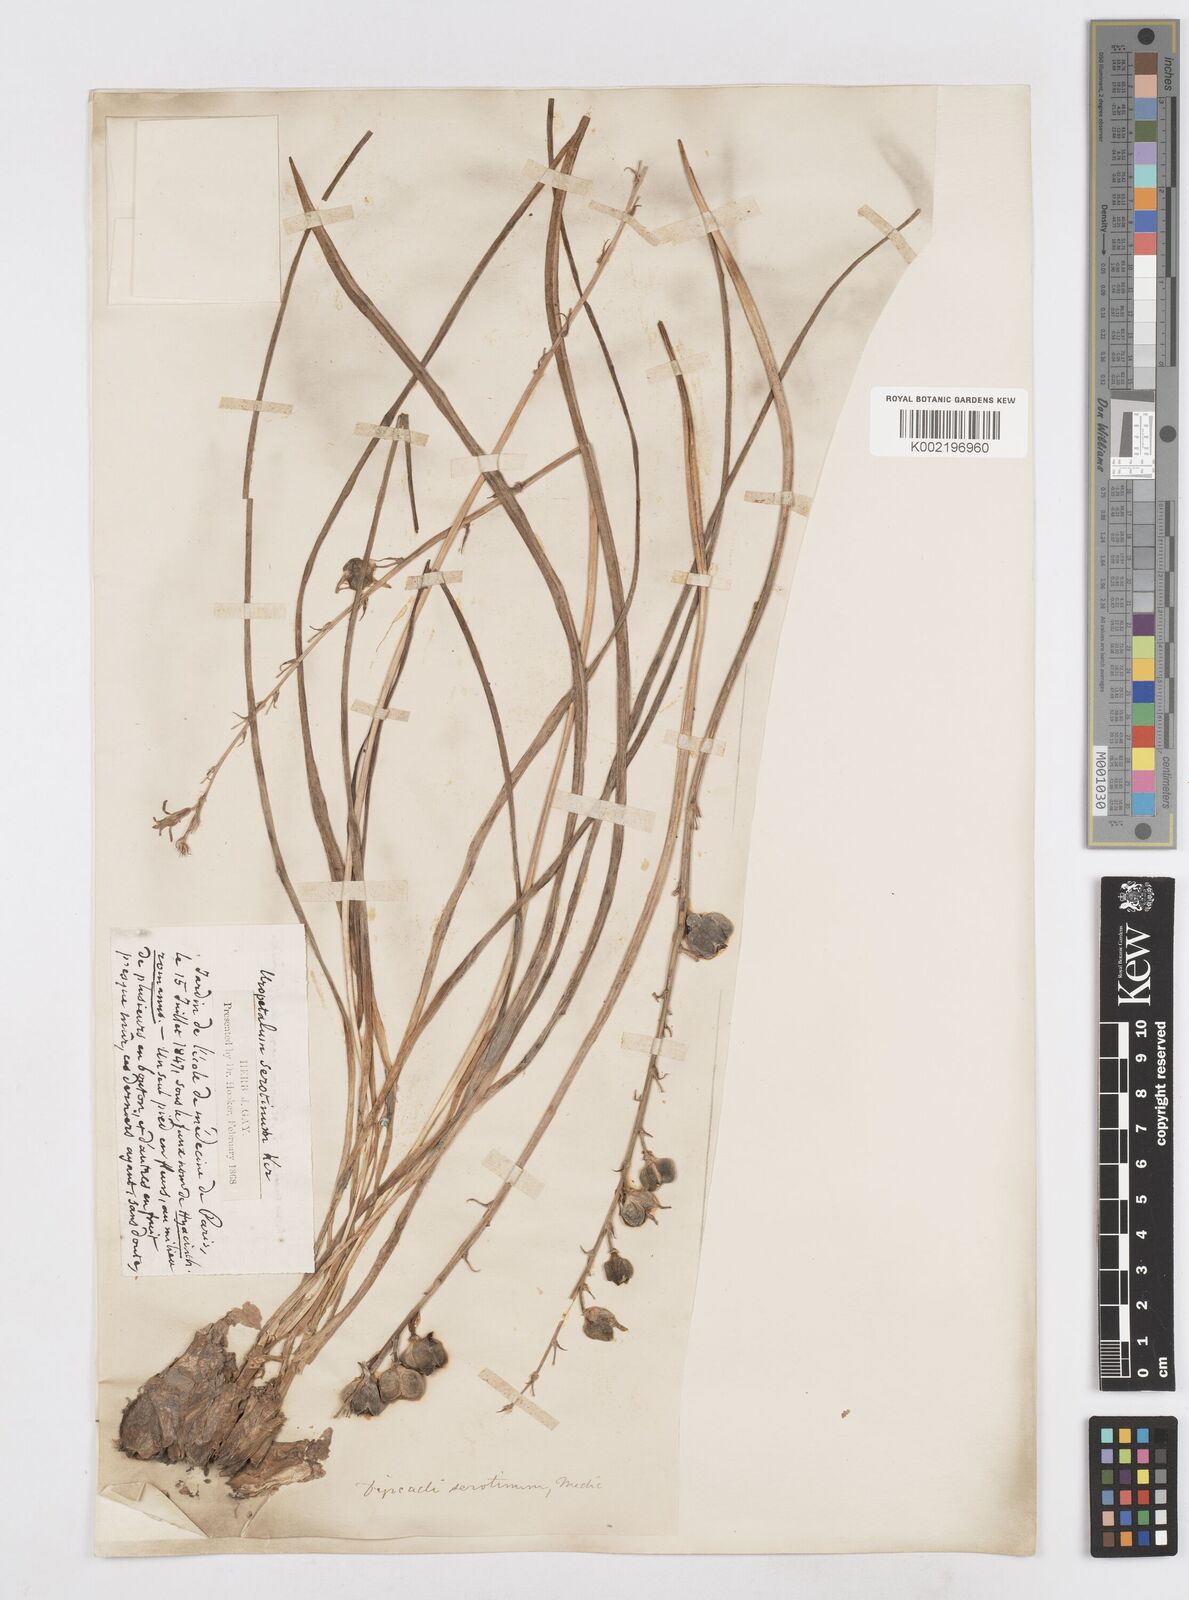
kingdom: Plantae
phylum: Tracheophyta
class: Liliopsida
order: Asparagales
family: Asparagaceae
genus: Dipcadi
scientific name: Dipcadi serotinum
